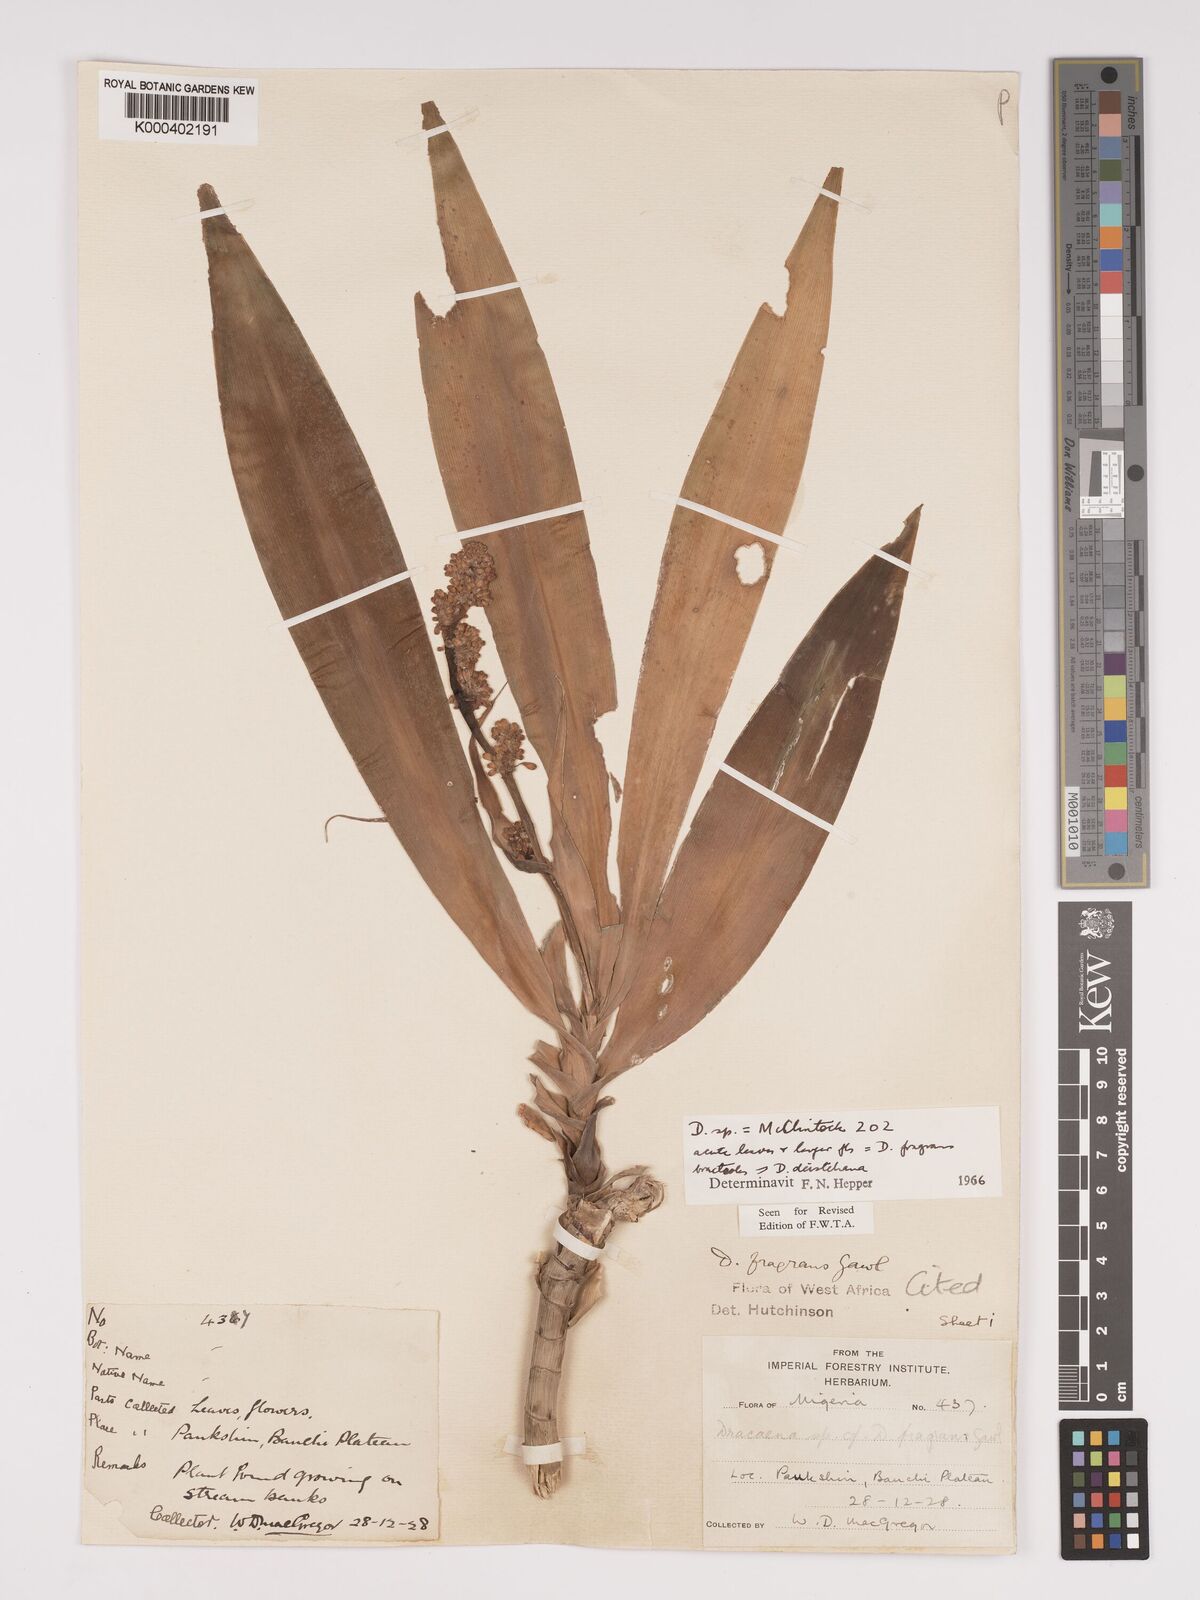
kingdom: Plantae
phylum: Tracheophyta
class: Liliopsida
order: Asparagales
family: Asparagaceae
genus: Dracaena
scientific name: Dracaena fragrans
